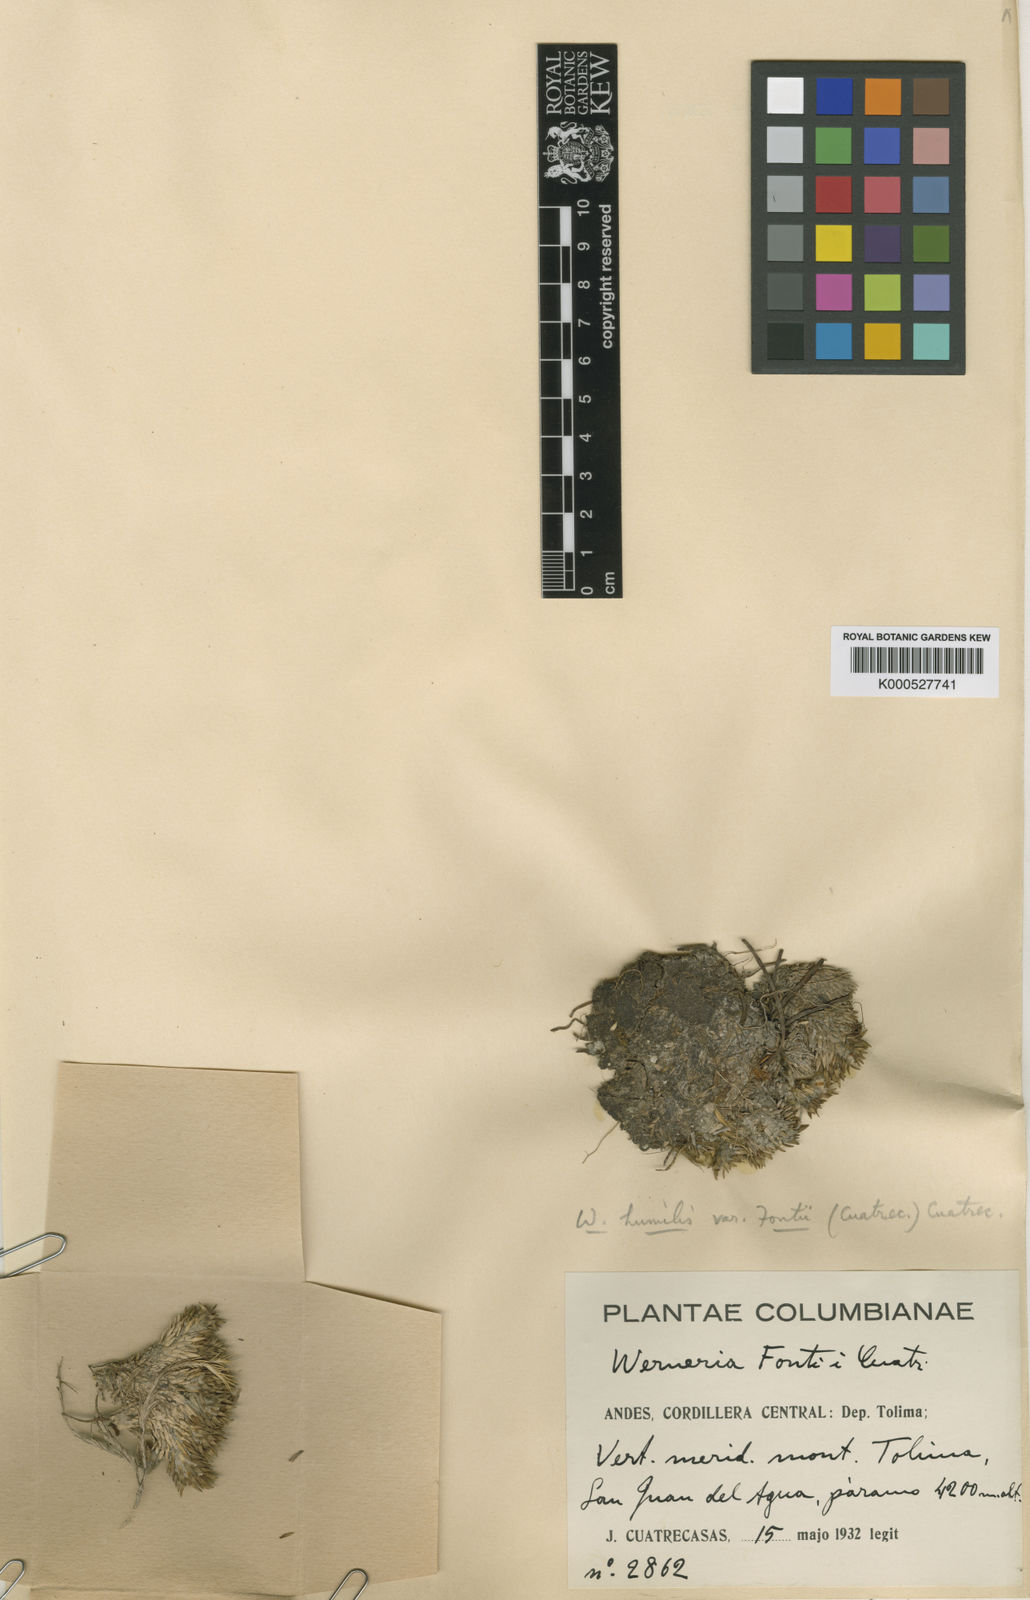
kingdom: Plantae
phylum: Tracheophyta
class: Magnoliopsida
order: Asterales
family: Asteraceae
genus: Werneria
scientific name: Werneria humilis
